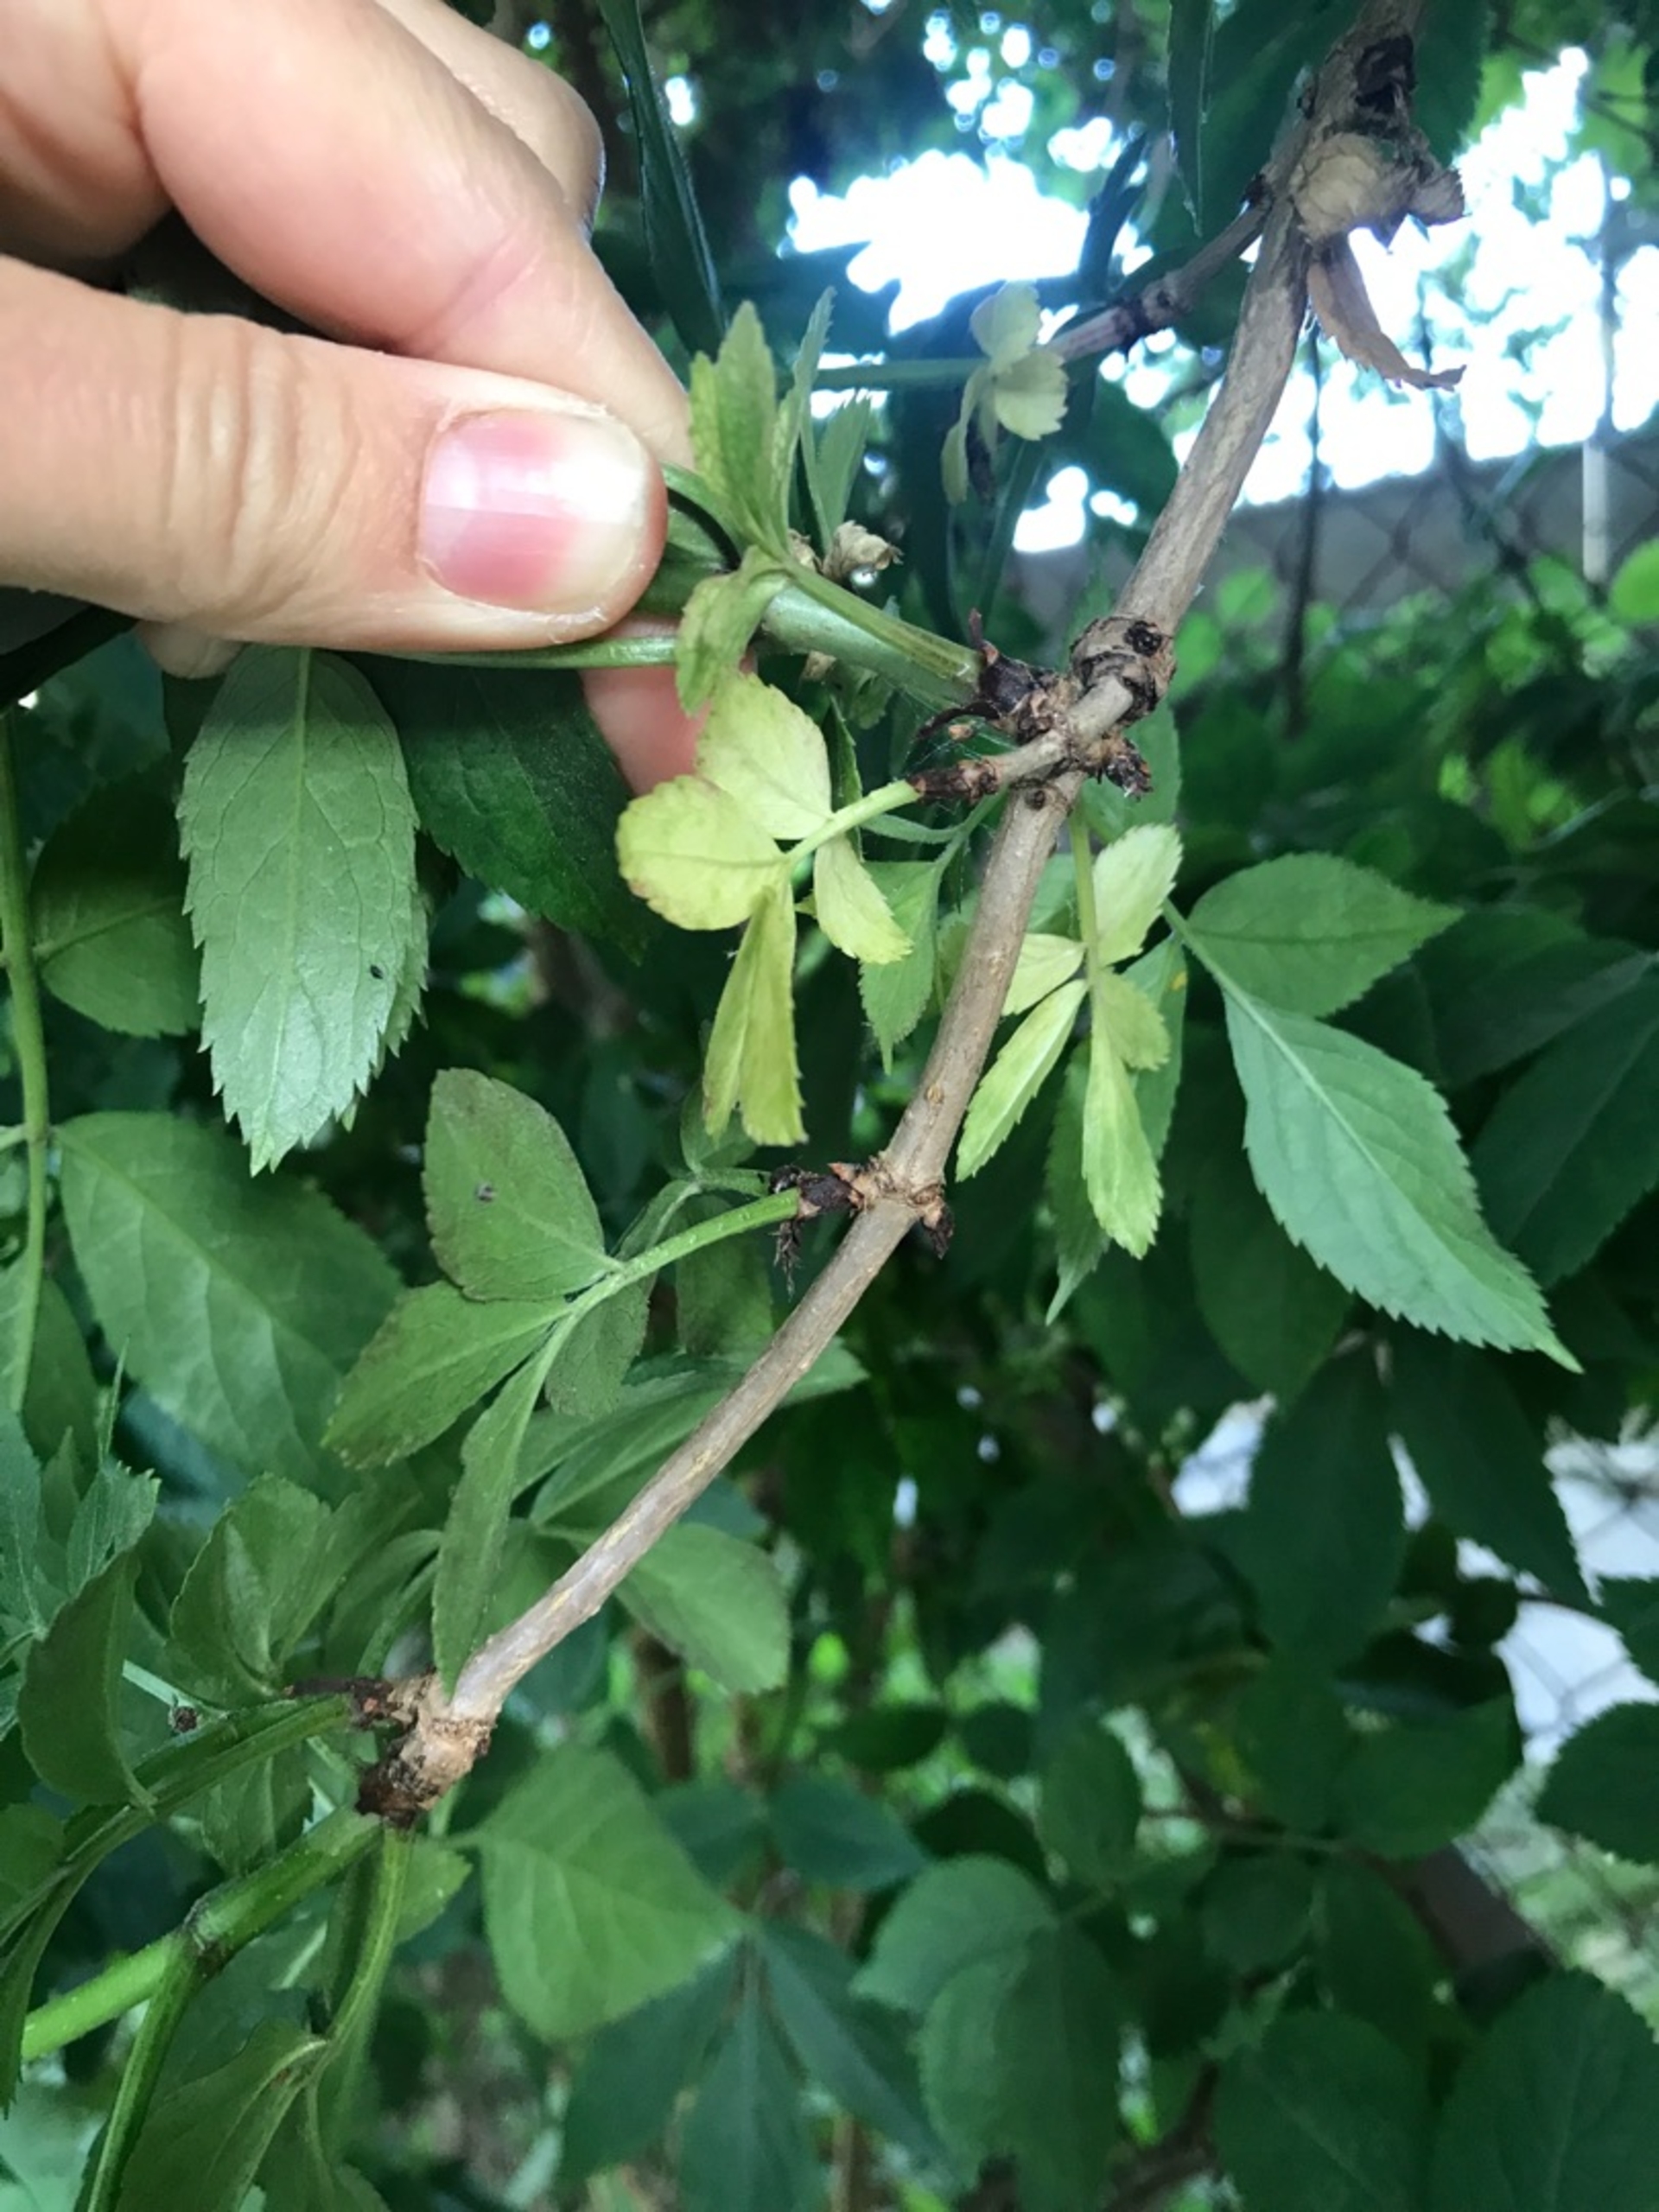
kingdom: Plantae
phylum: Tracheophyta
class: Magnoliopsida
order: Dipsacales
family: Viburnaceae
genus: Sambucus
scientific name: Sambucus nigra
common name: Almindelig hyld
